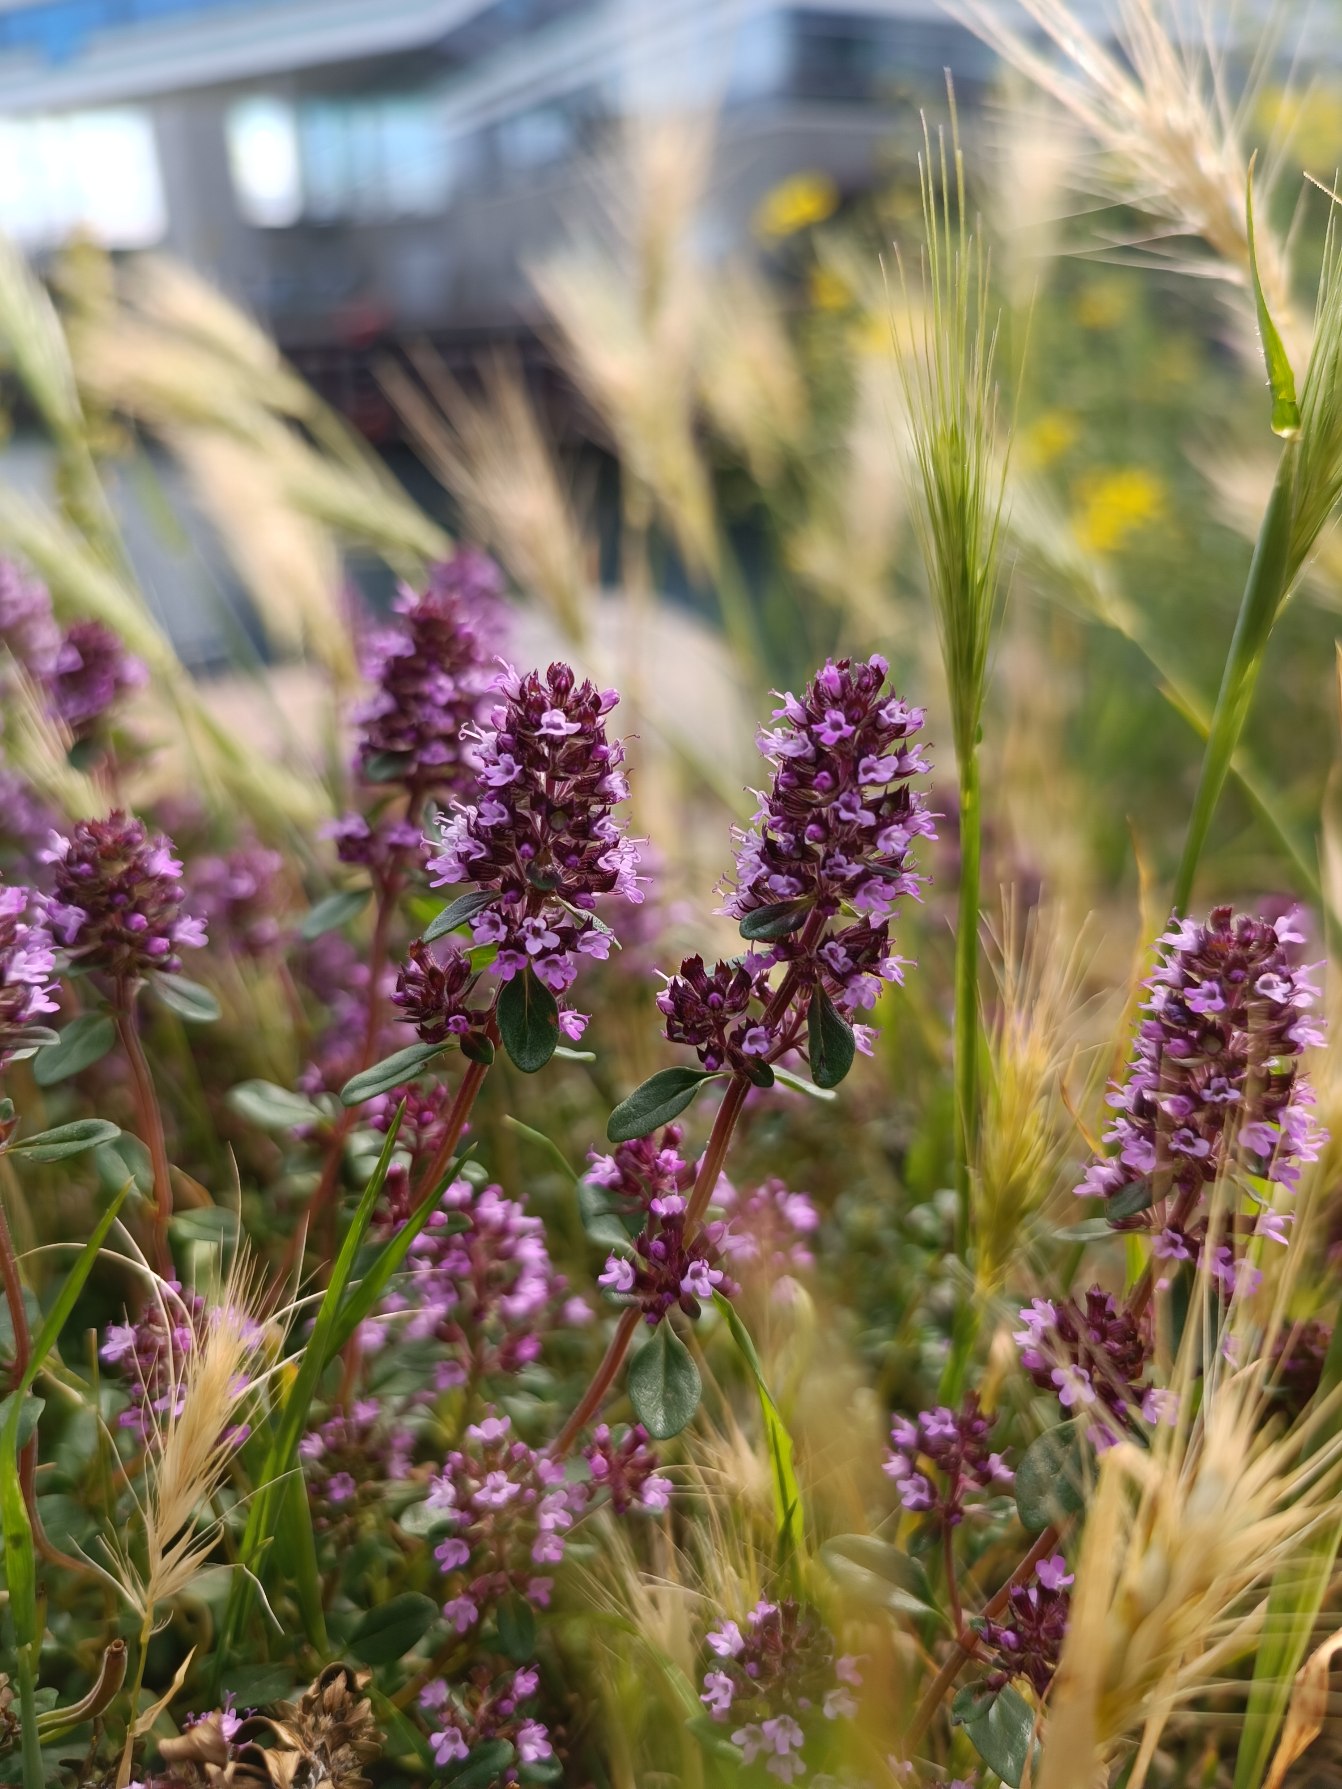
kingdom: Plantae
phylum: Tracheophyta
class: Magnoliopsida
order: Lamiales
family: Lamiaceae
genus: Thymus
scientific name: Thymus pulegioides
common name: Bredbladet timian
